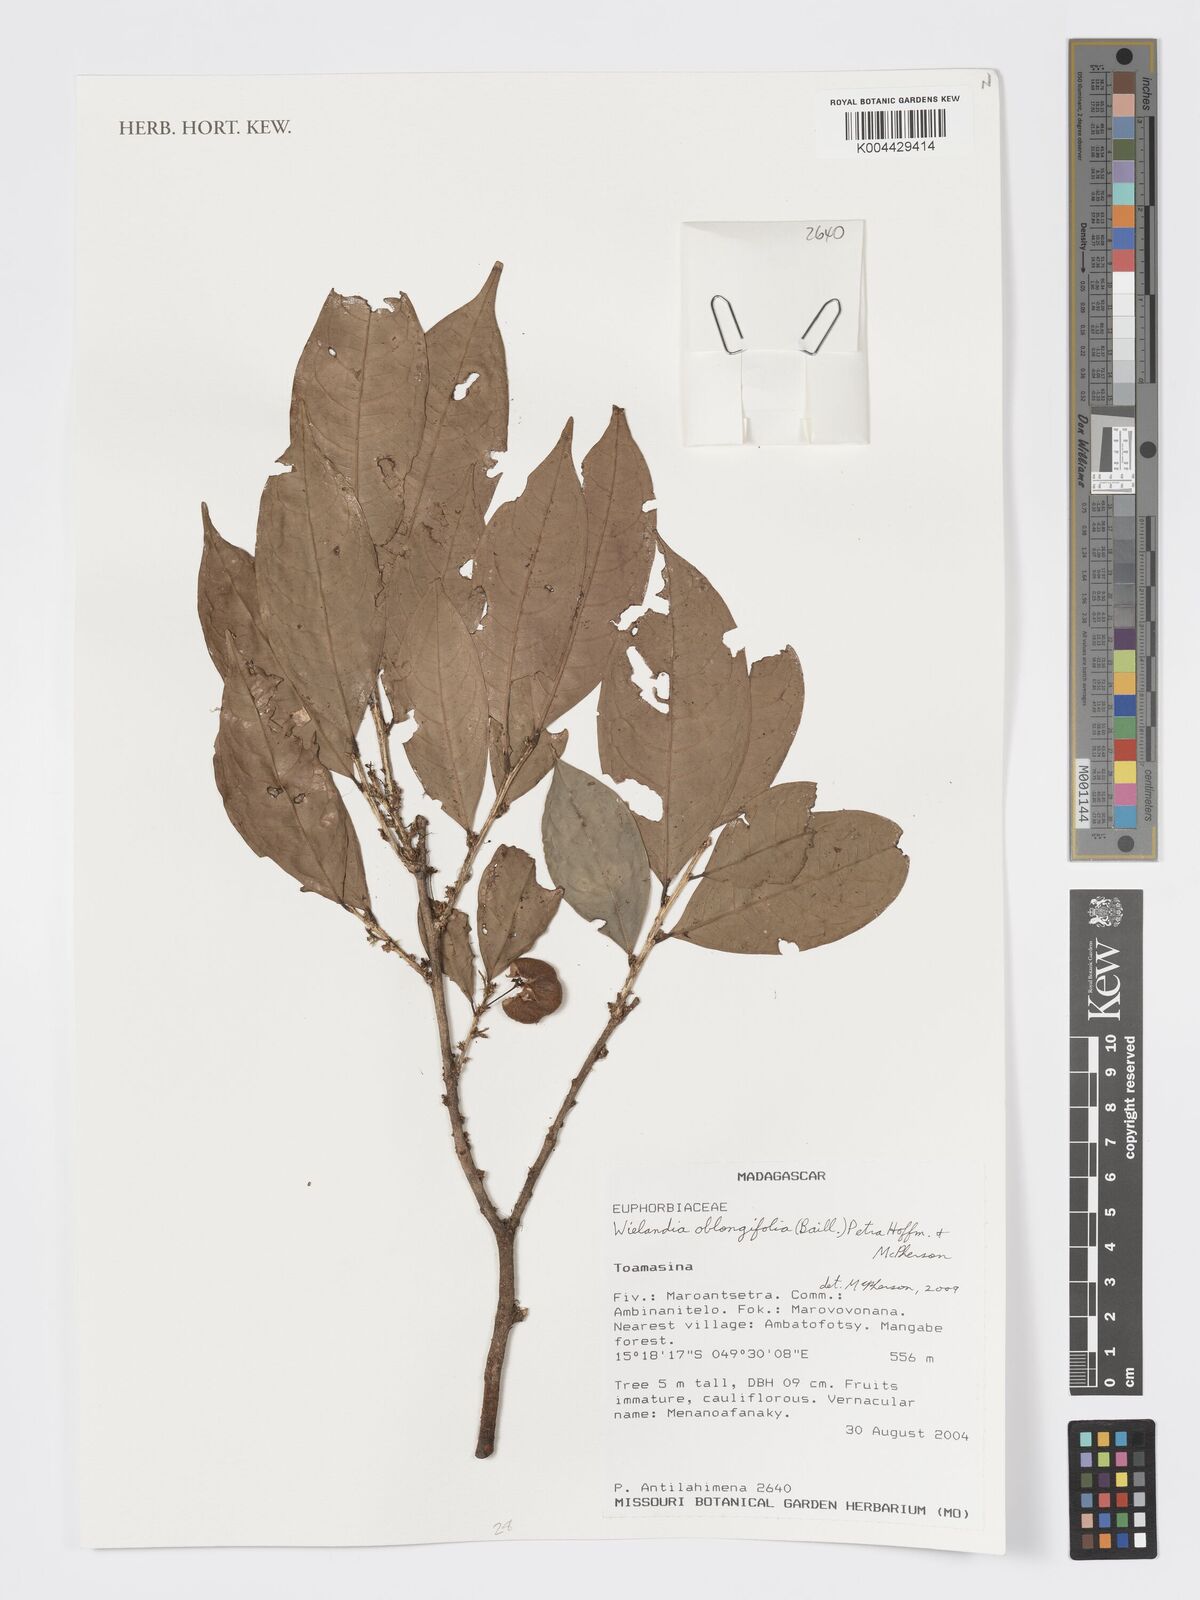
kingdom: Plantae
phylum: Tracheophyta
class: Magnoliopsida
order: Malpighiales
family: Phyllanthaceae
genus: Wielandia
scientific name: Wielandia oblongifolia
